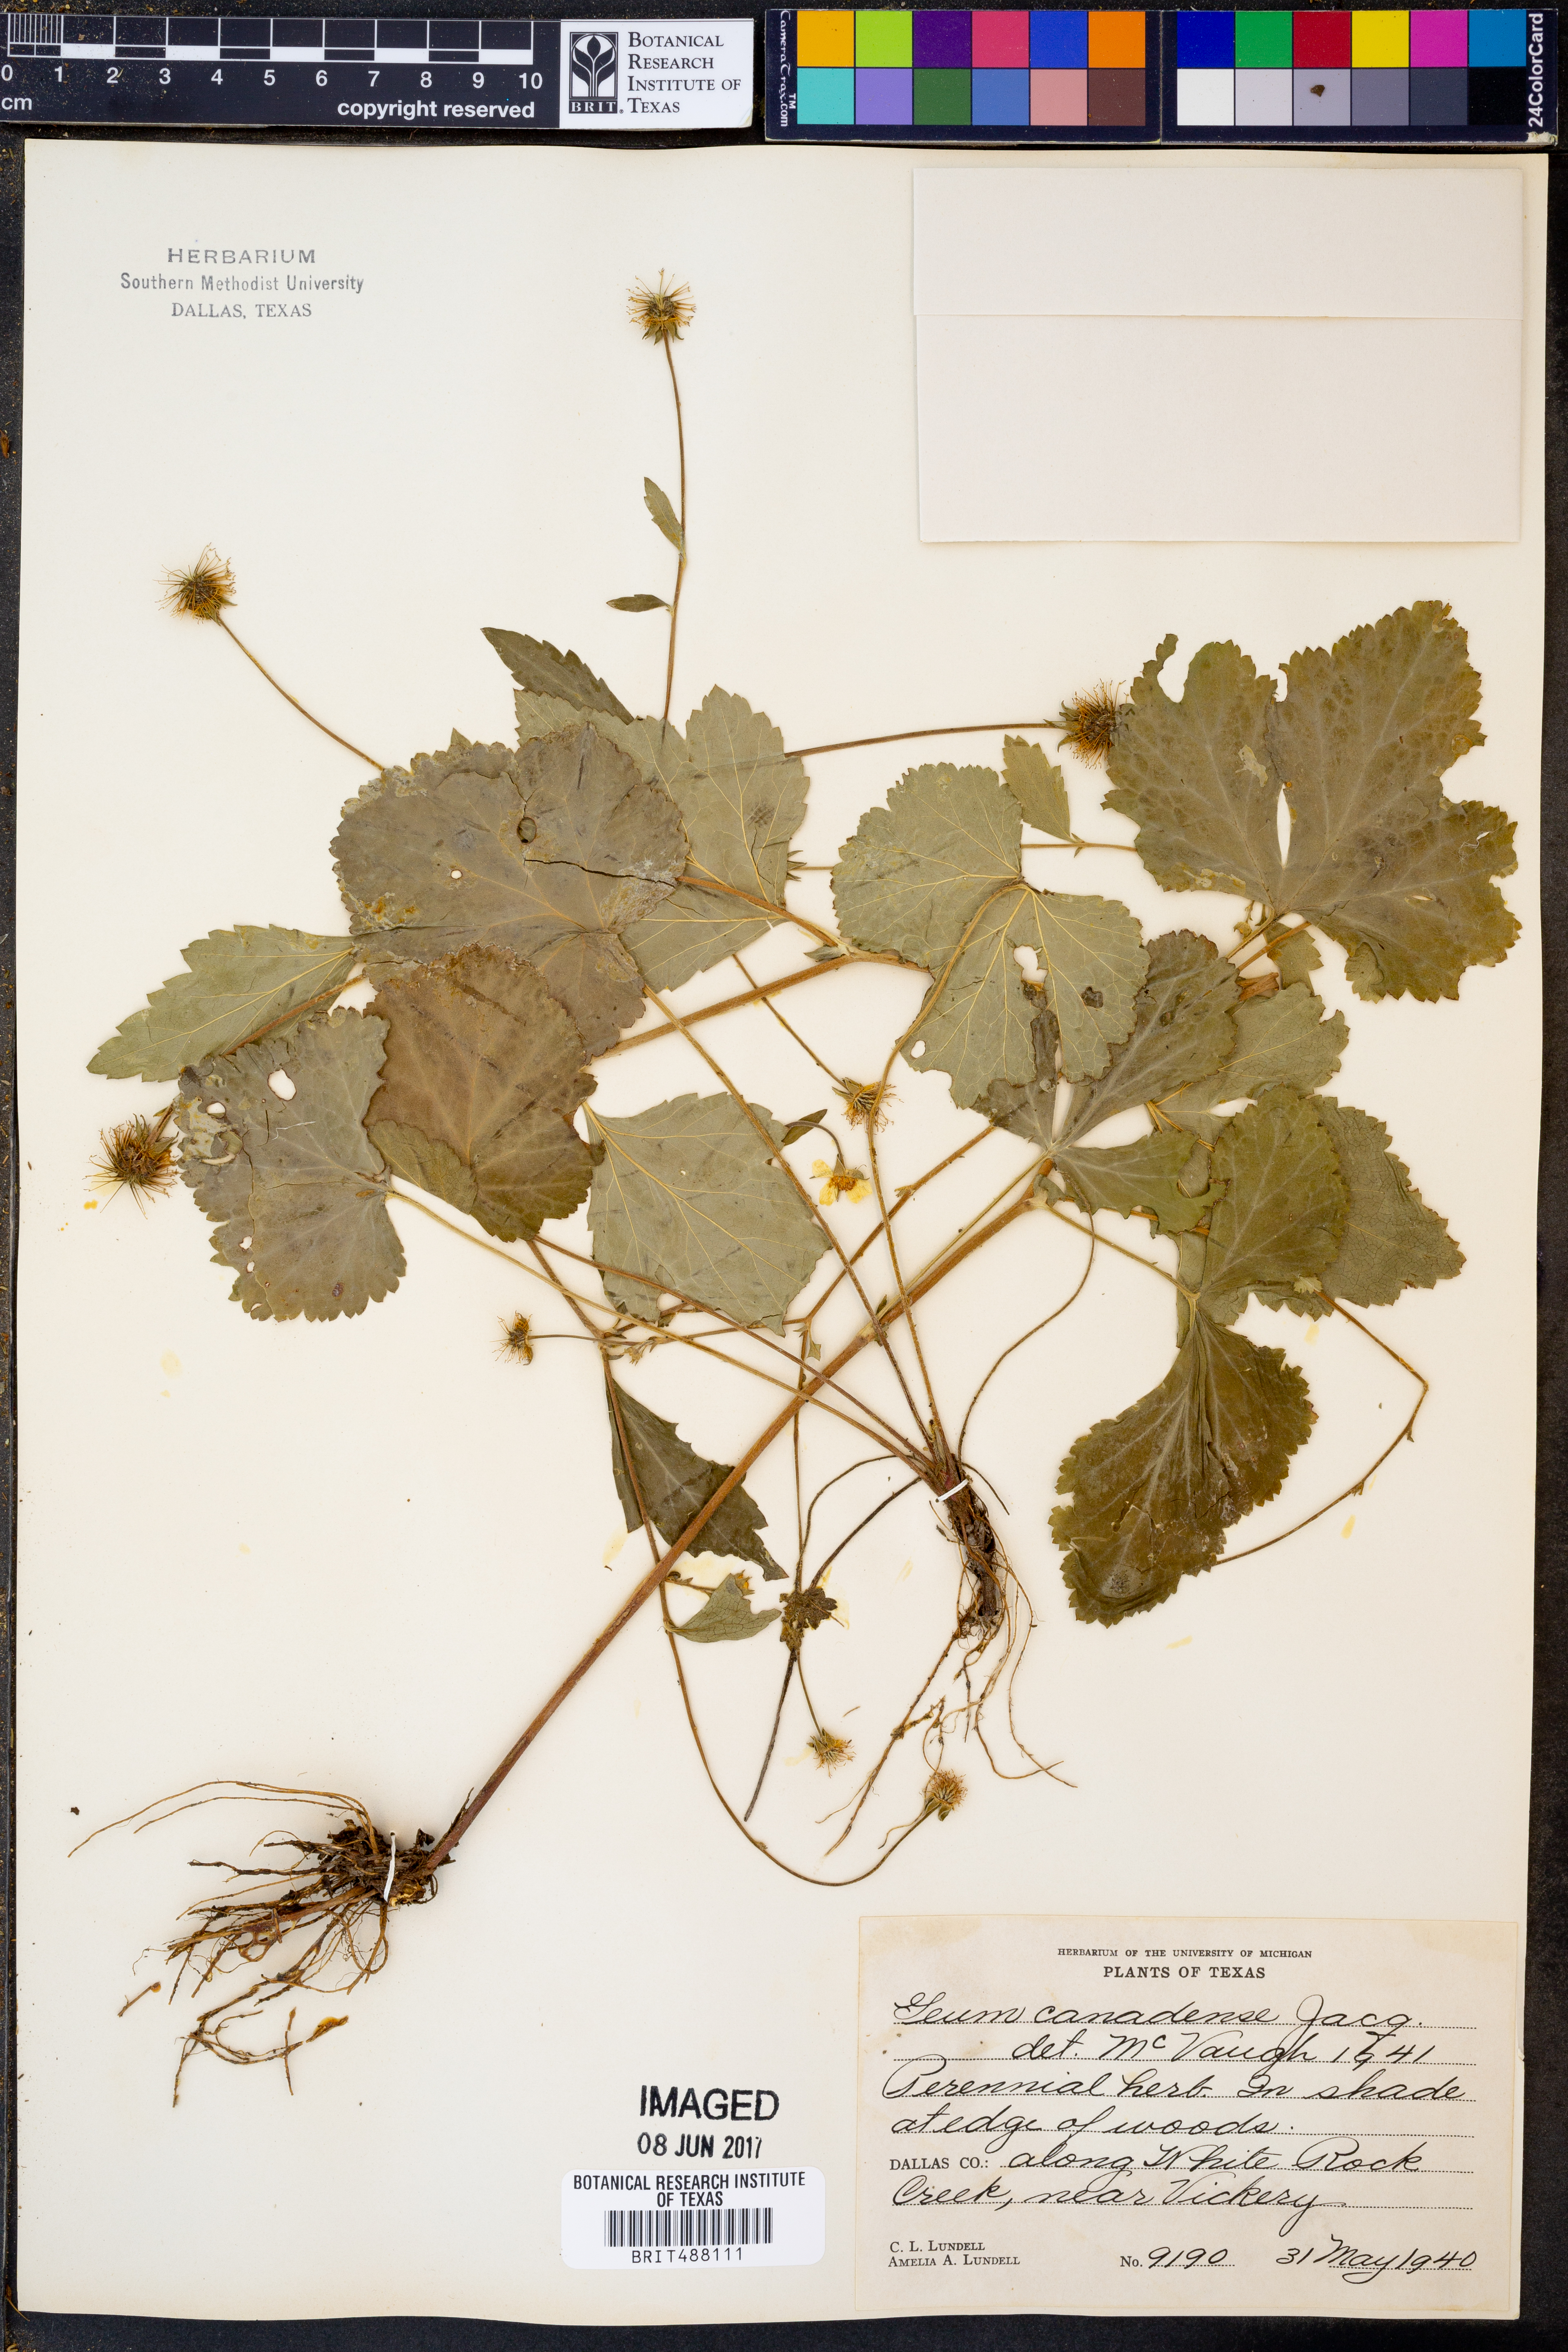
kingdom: Plantae
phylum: Tracheophyta
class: Magnoliopsida
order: Rosales
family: Rosaceae
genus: Geum
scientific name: Geum canadense
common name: White avens
